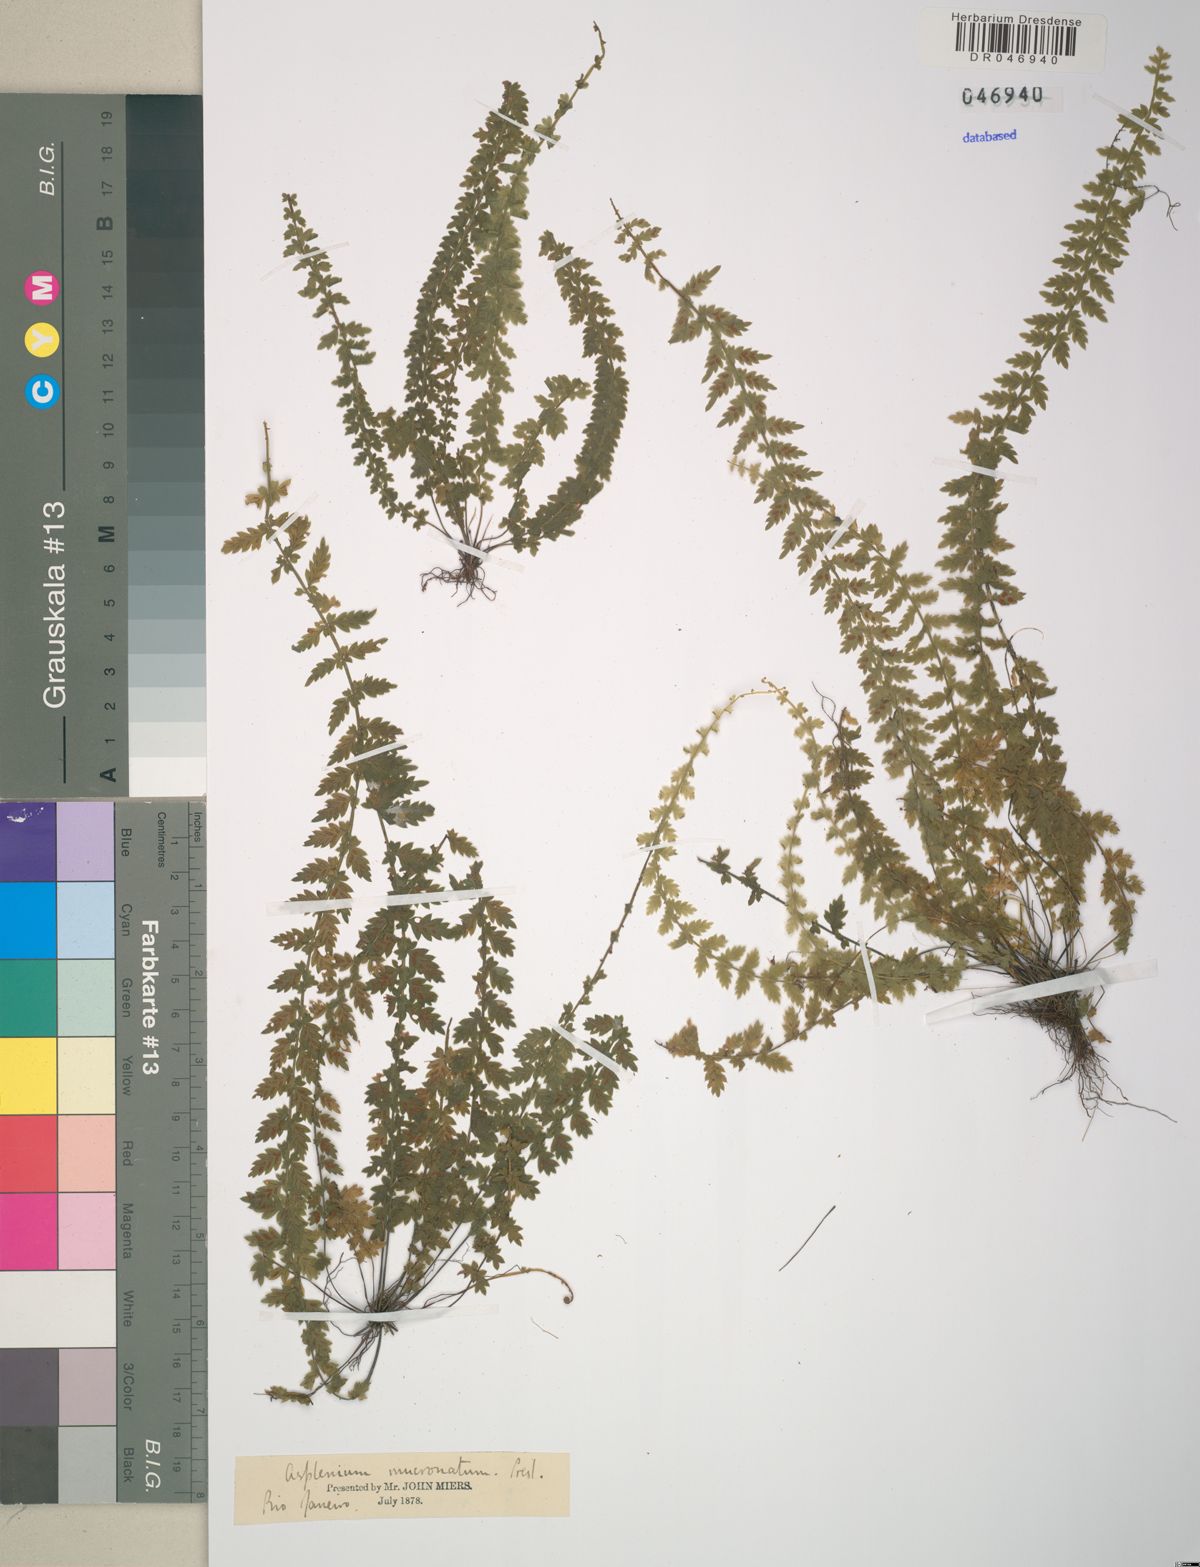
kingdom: Plantae
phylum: Tracheophyta
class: Polypodiopsida
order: Polypodiales
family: Aspleniaceae
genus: Asplenium
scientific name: Asplenium mucronatum
